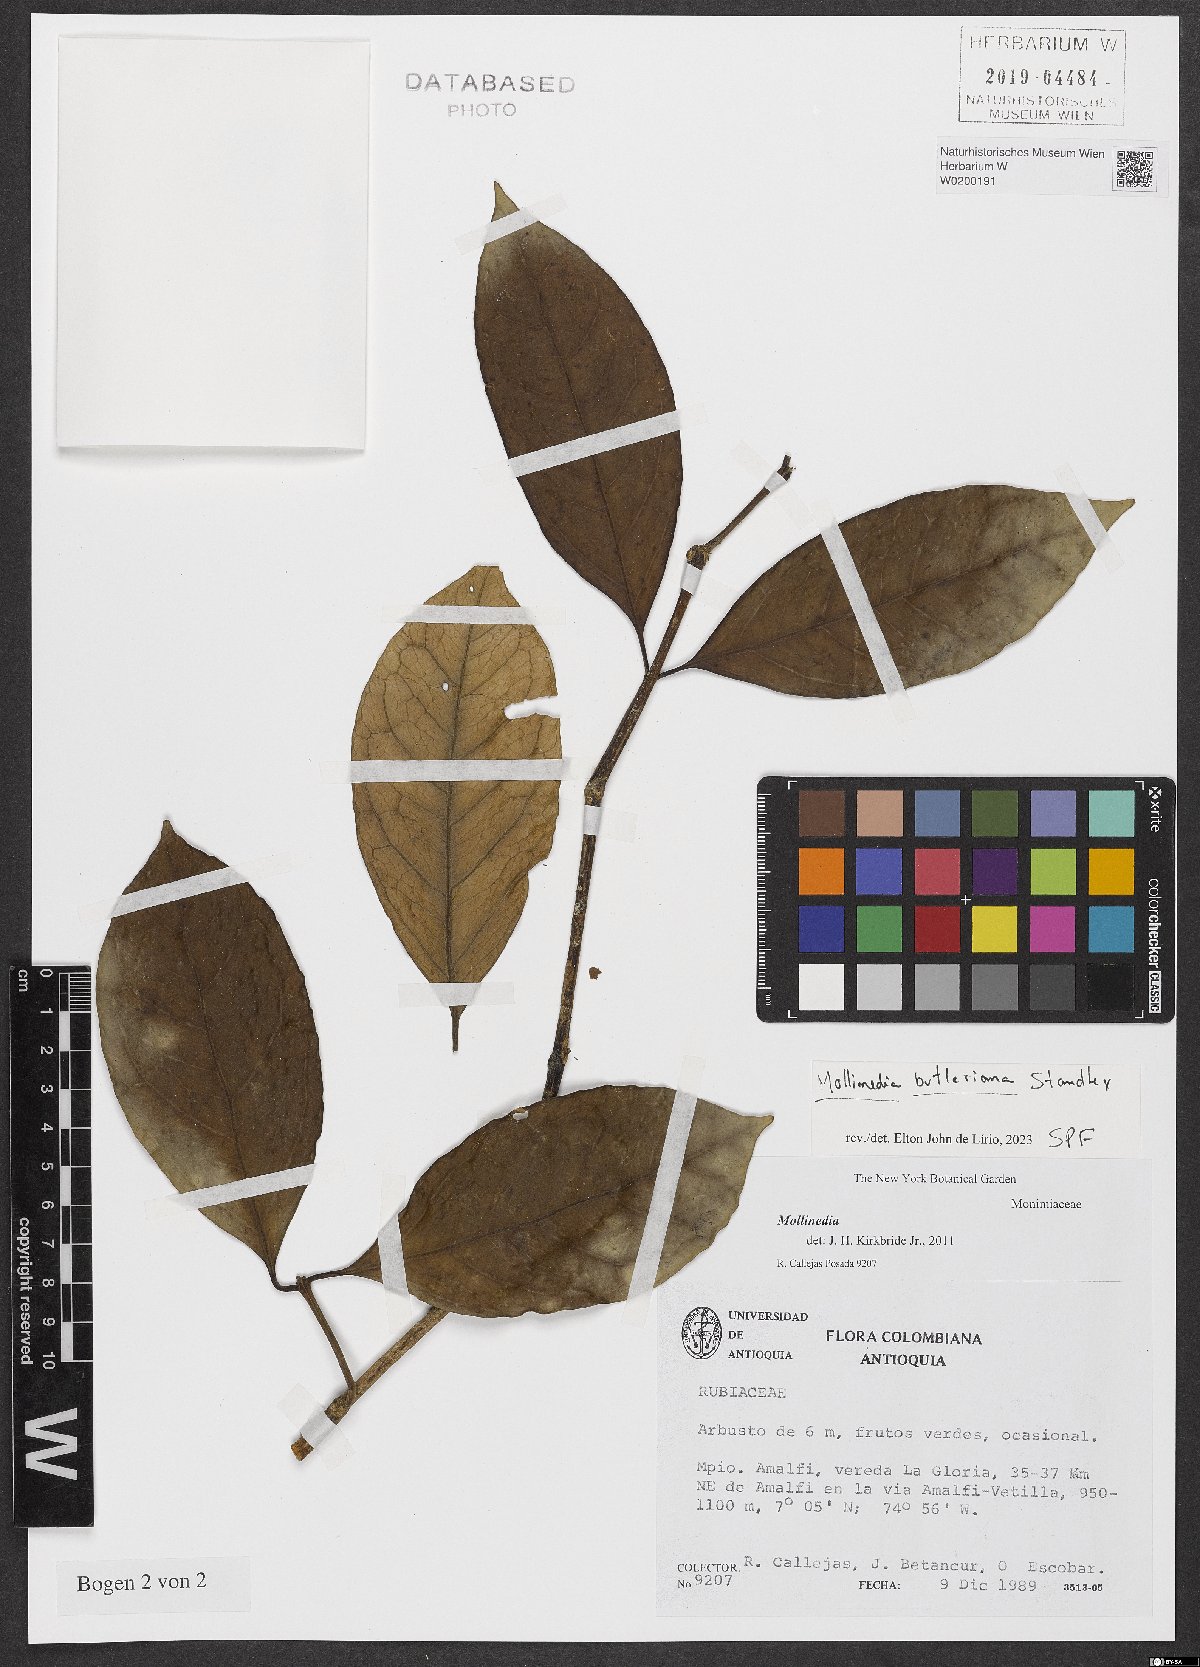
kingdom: Plantae
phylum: Tracheophyta
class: Magnoliopsida
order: Laurales
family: Monimiaceae
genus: Mollinedia
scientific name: Mollinedia
